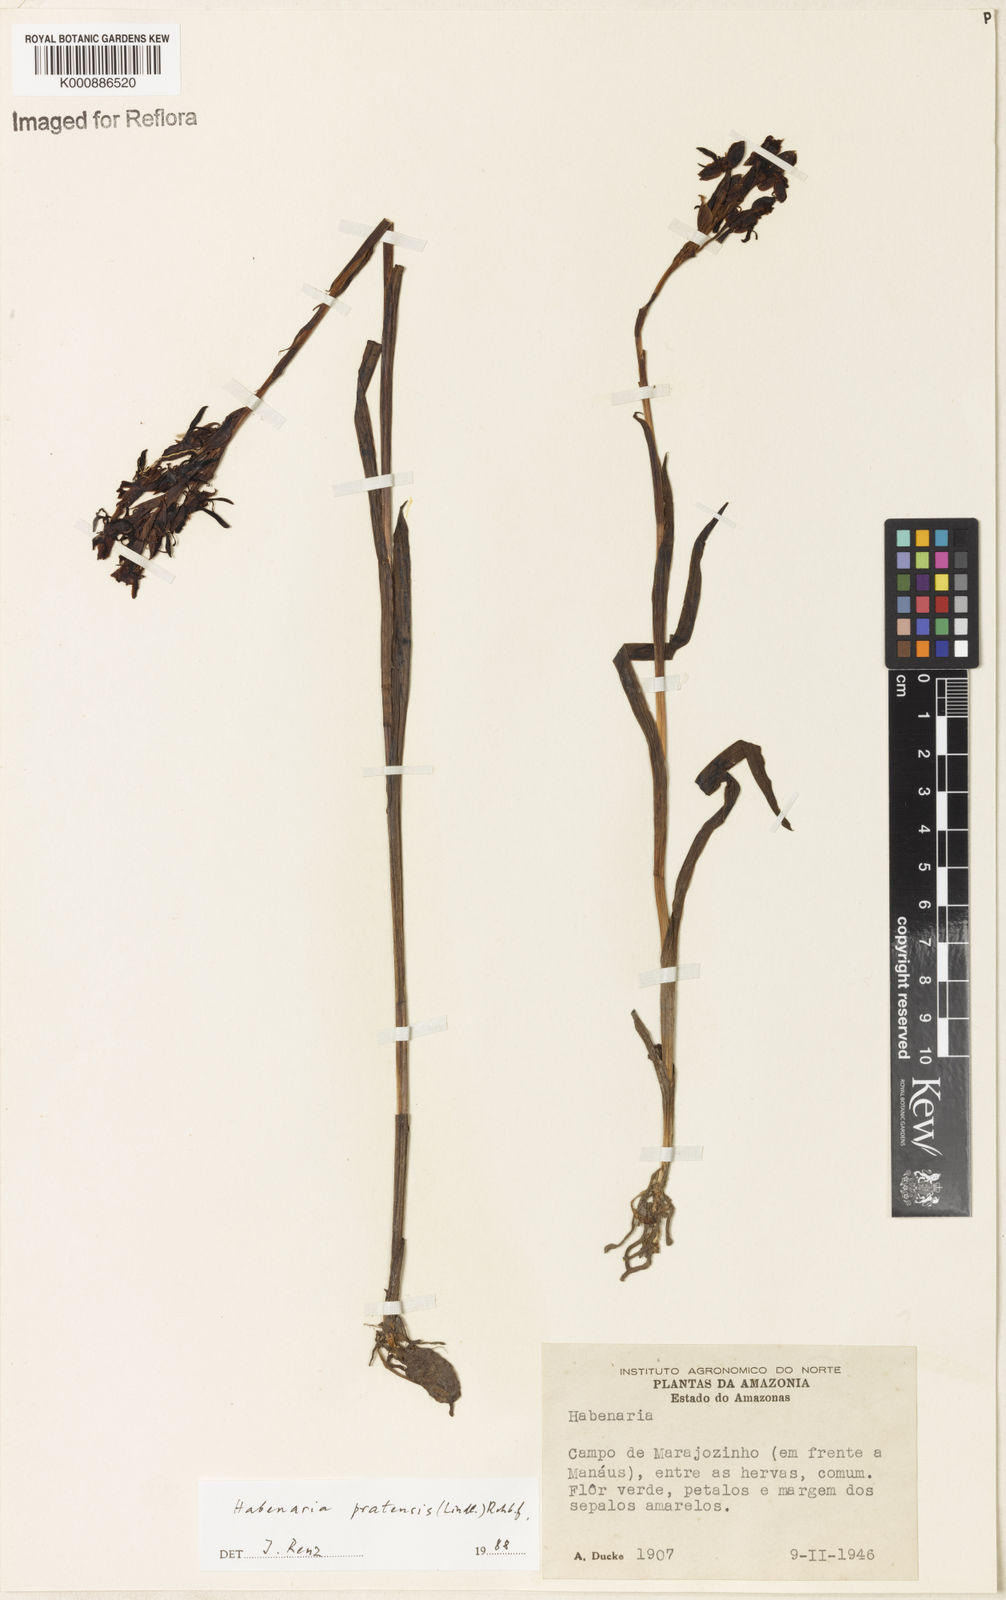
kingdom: Plantae
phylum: Tracheophyta
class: Liliopsida
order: Asparagales
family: Orchidaceae
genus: Habenaria
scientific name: Habenaria pratensis
